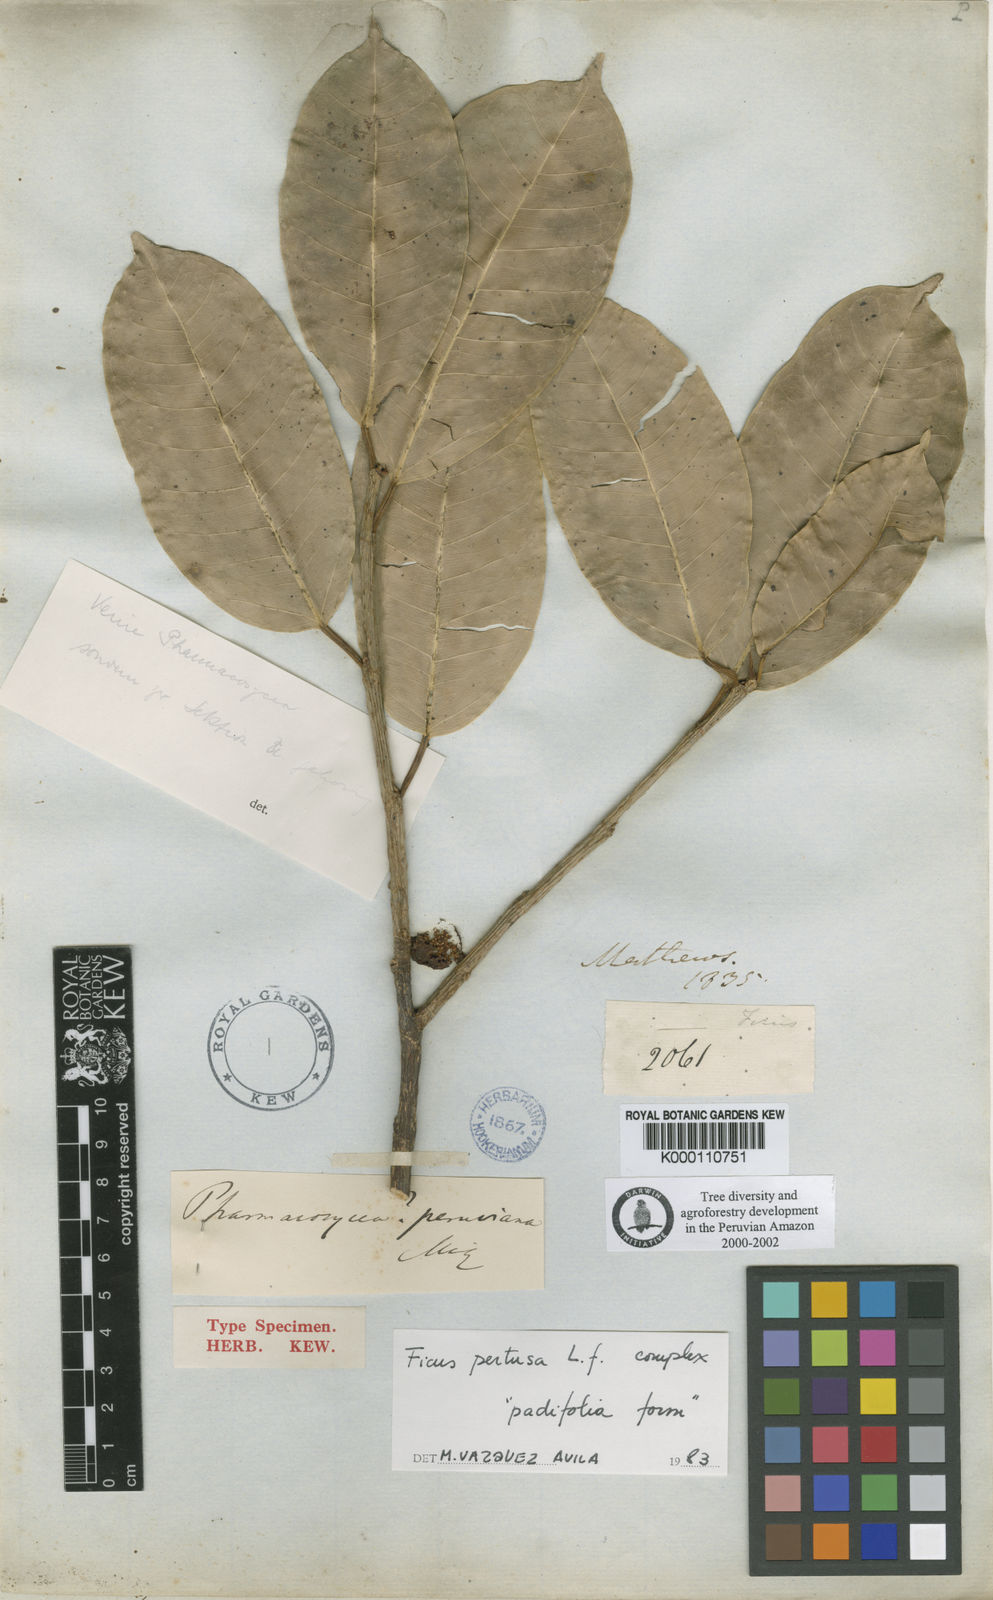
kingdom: Plantae
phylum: Tracheophyta
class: Magnoliopsida
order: Rosales
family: Moraceae
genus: Ficus
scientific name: Ficus pertusa
